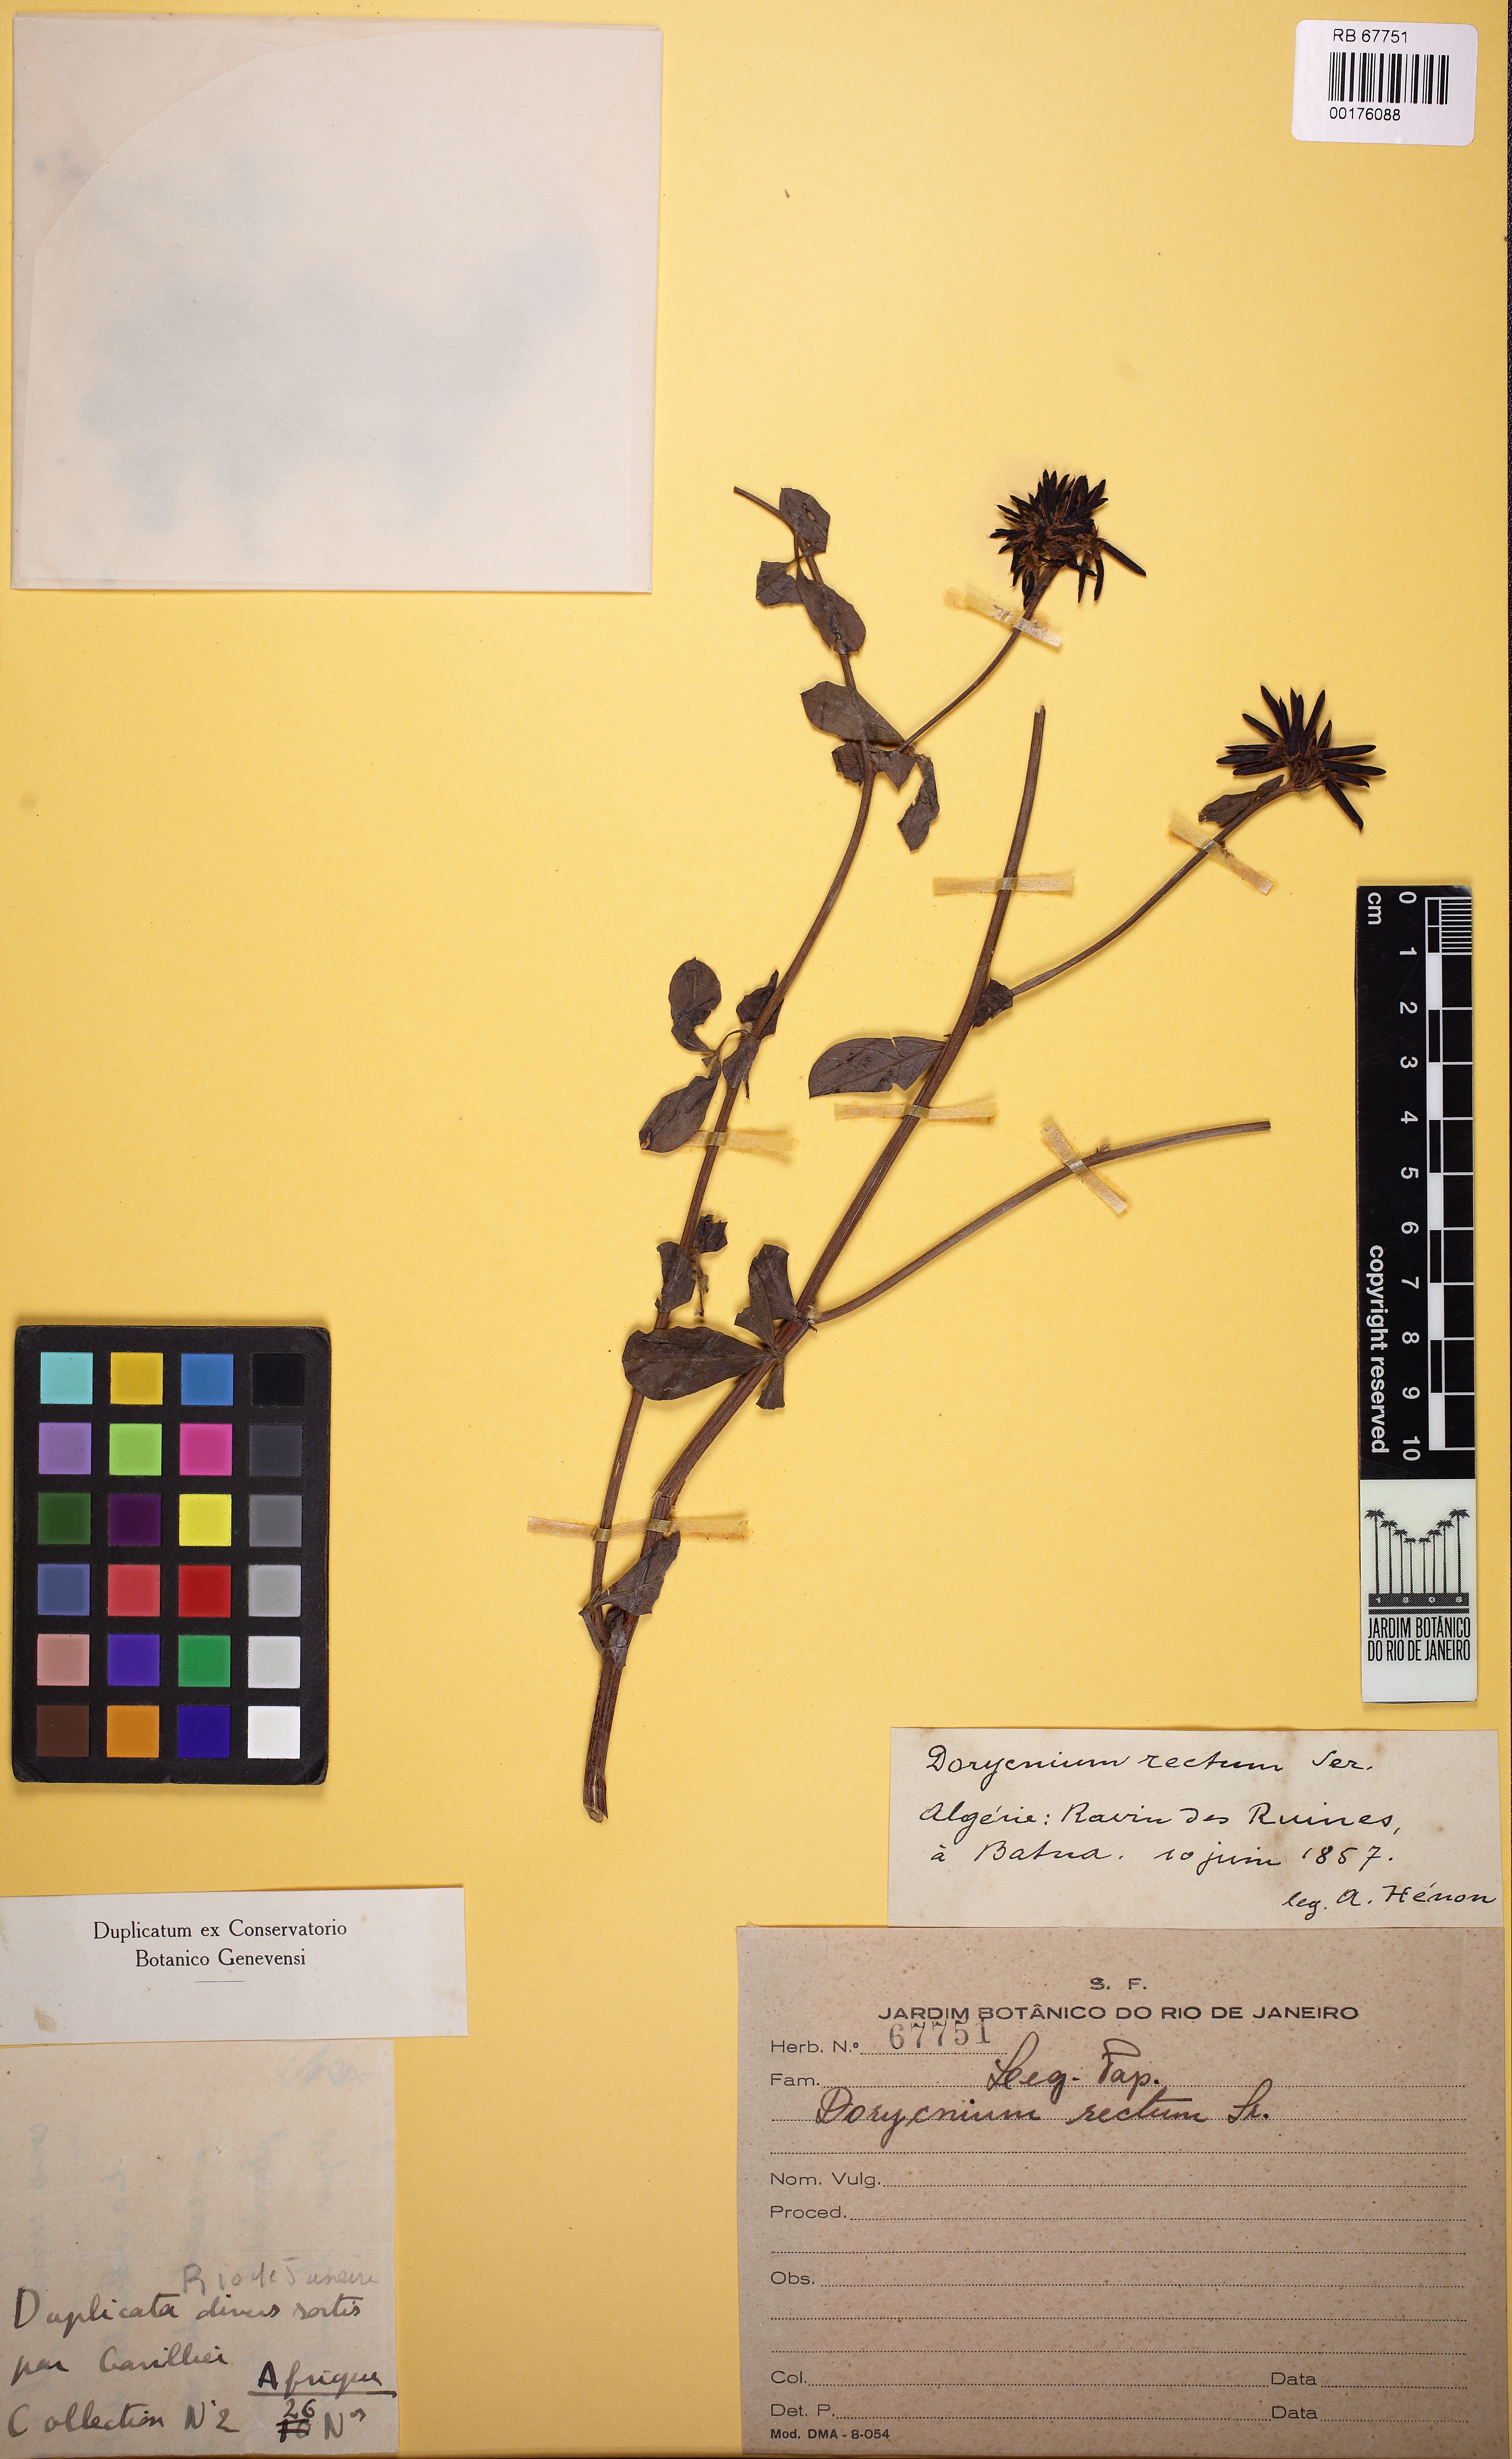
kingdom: Plantae
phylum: Tracheophyta
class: Magnoliopsida
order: Fabales
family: Fabaceae
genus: Lotus
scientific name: Lotus rectus
